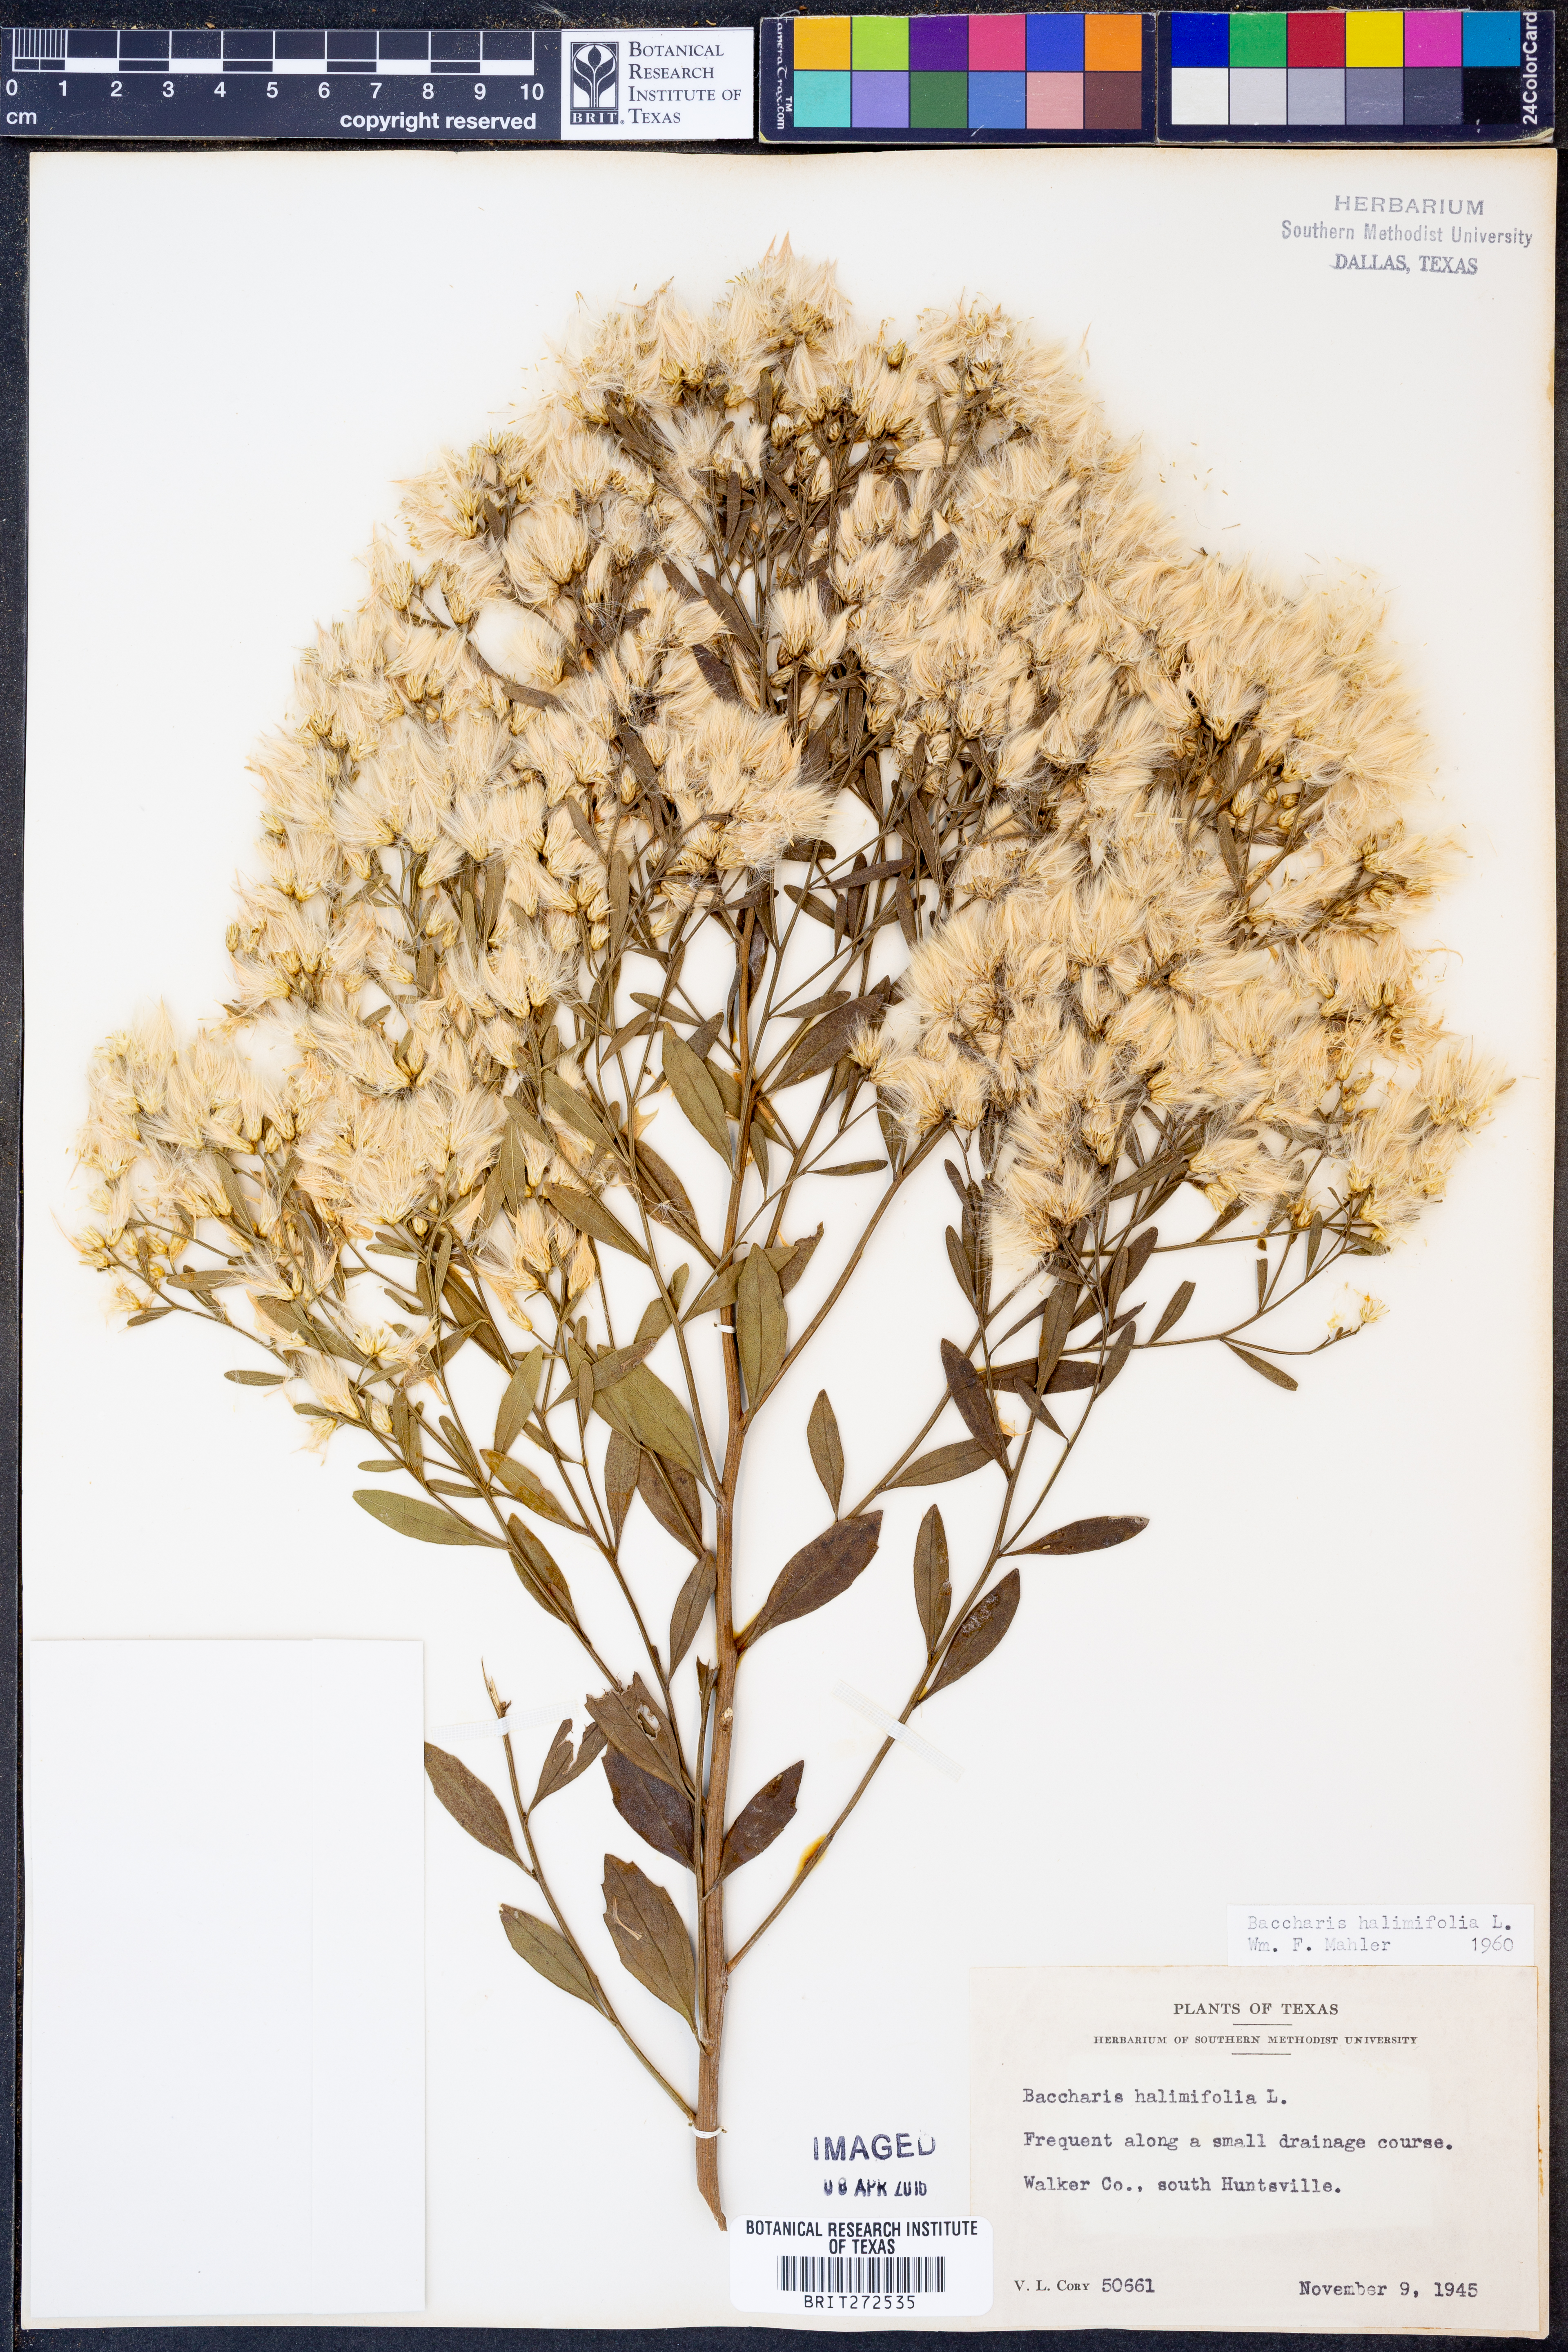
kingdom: Plantae
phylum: Tracheophyta
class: Magnoliopsida
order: Asterales
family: Asteraceae
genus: Nidorella
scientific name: Nidorella ivifolia
